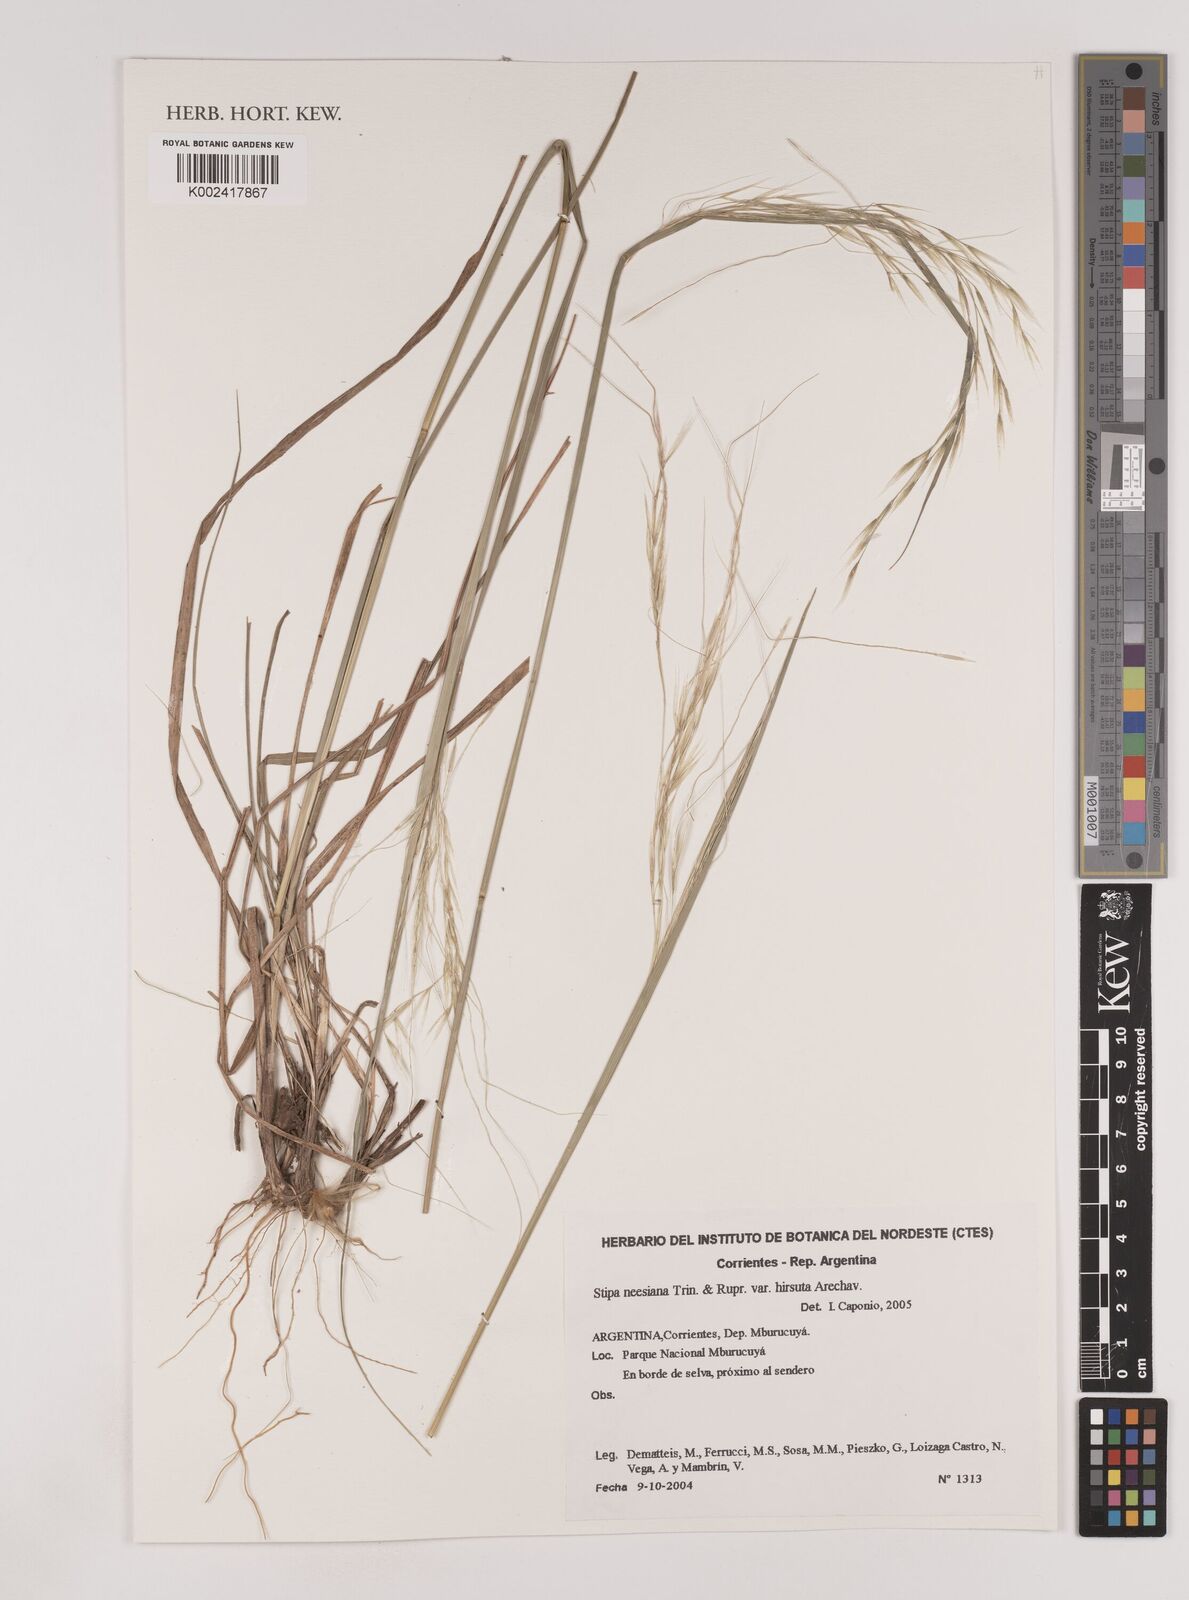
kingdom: Plantae
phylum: Tracheophyta
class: Liliopsida
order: Poales
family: Poaceae
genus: Nassella
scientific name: Nassella neesiana
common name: American needle-grass
